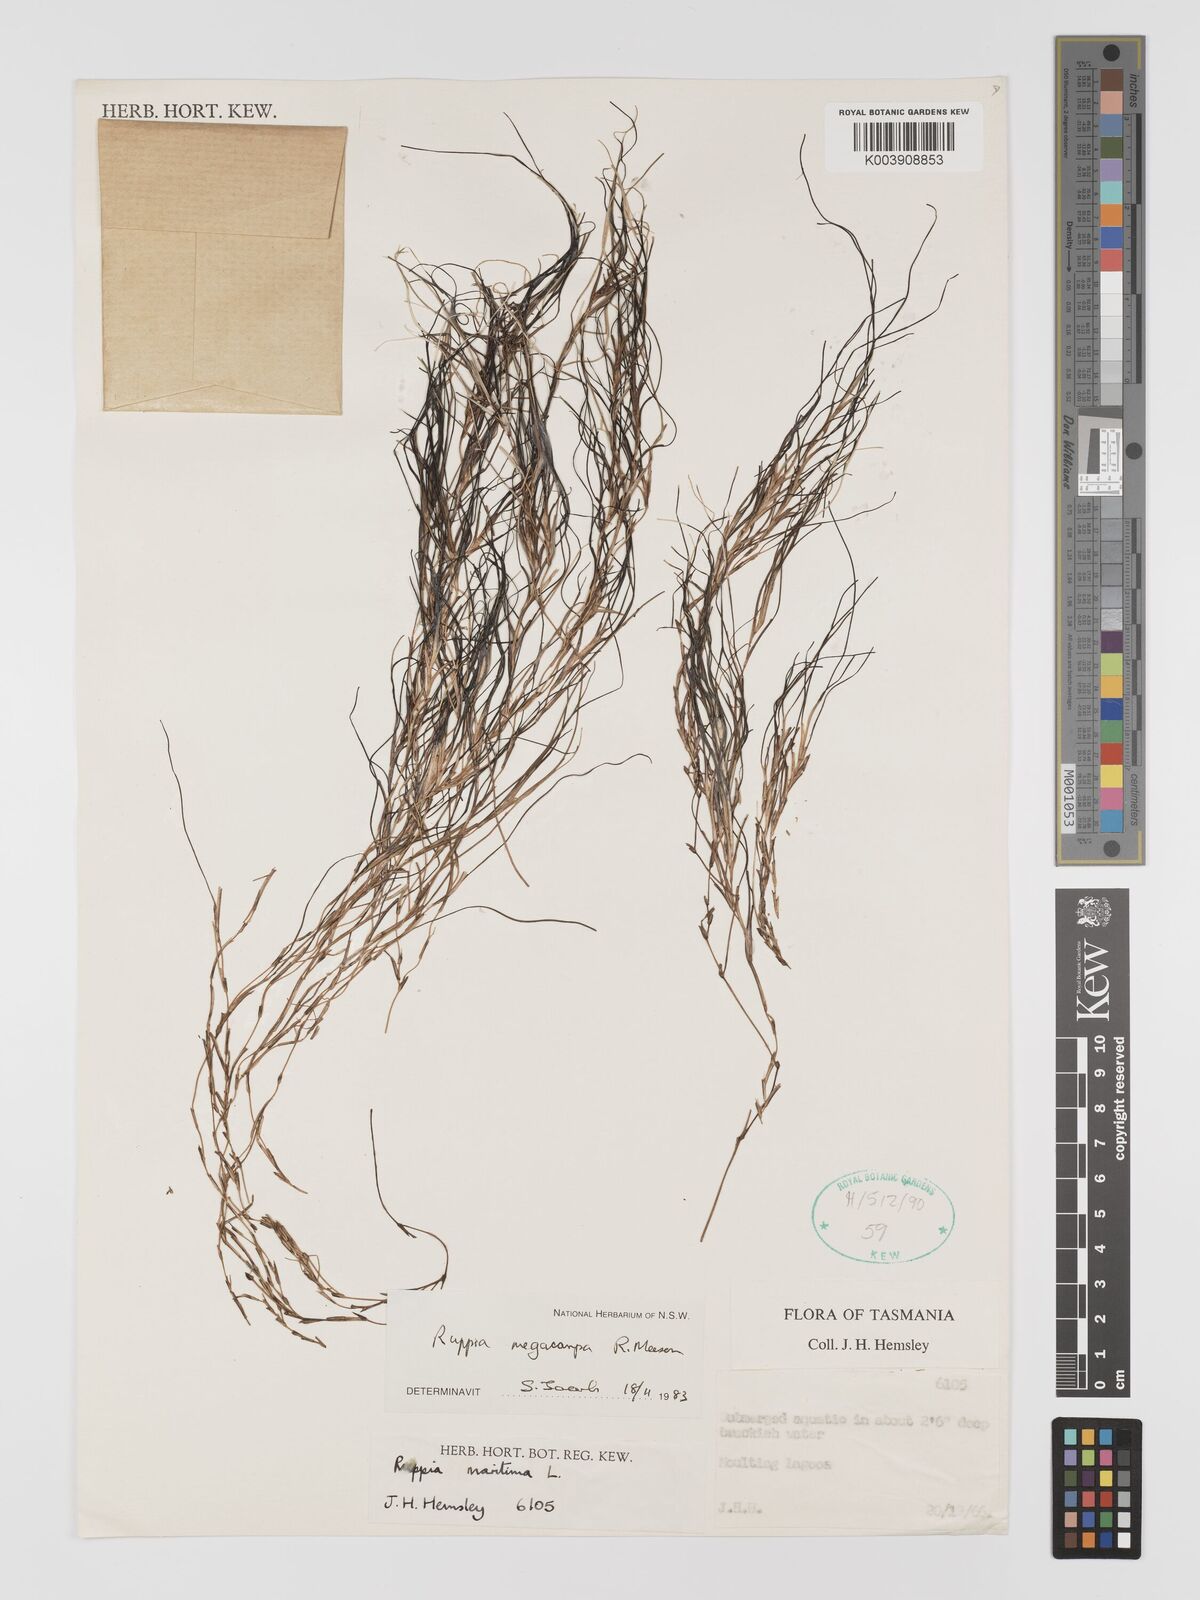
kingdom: Plantae
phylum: Tracheophyta
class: Liliopsida
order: Alismatales
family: Ruppiaceae
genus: Ruppia
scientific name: Ruppia megacarpa
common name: Large-fruit seatassel
